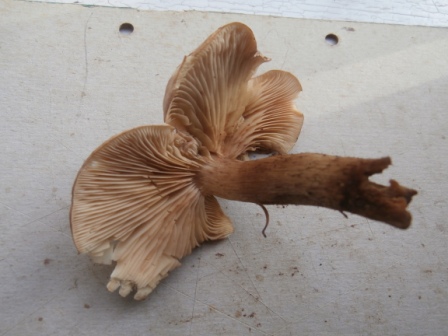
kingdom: Fungi
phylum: Basidiomycota
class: Agaricomycetes
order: Agaricales
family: Tricholomataceae
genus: Tricholoma
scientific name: Tricholoma fulvum
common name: birke-ridderhat
